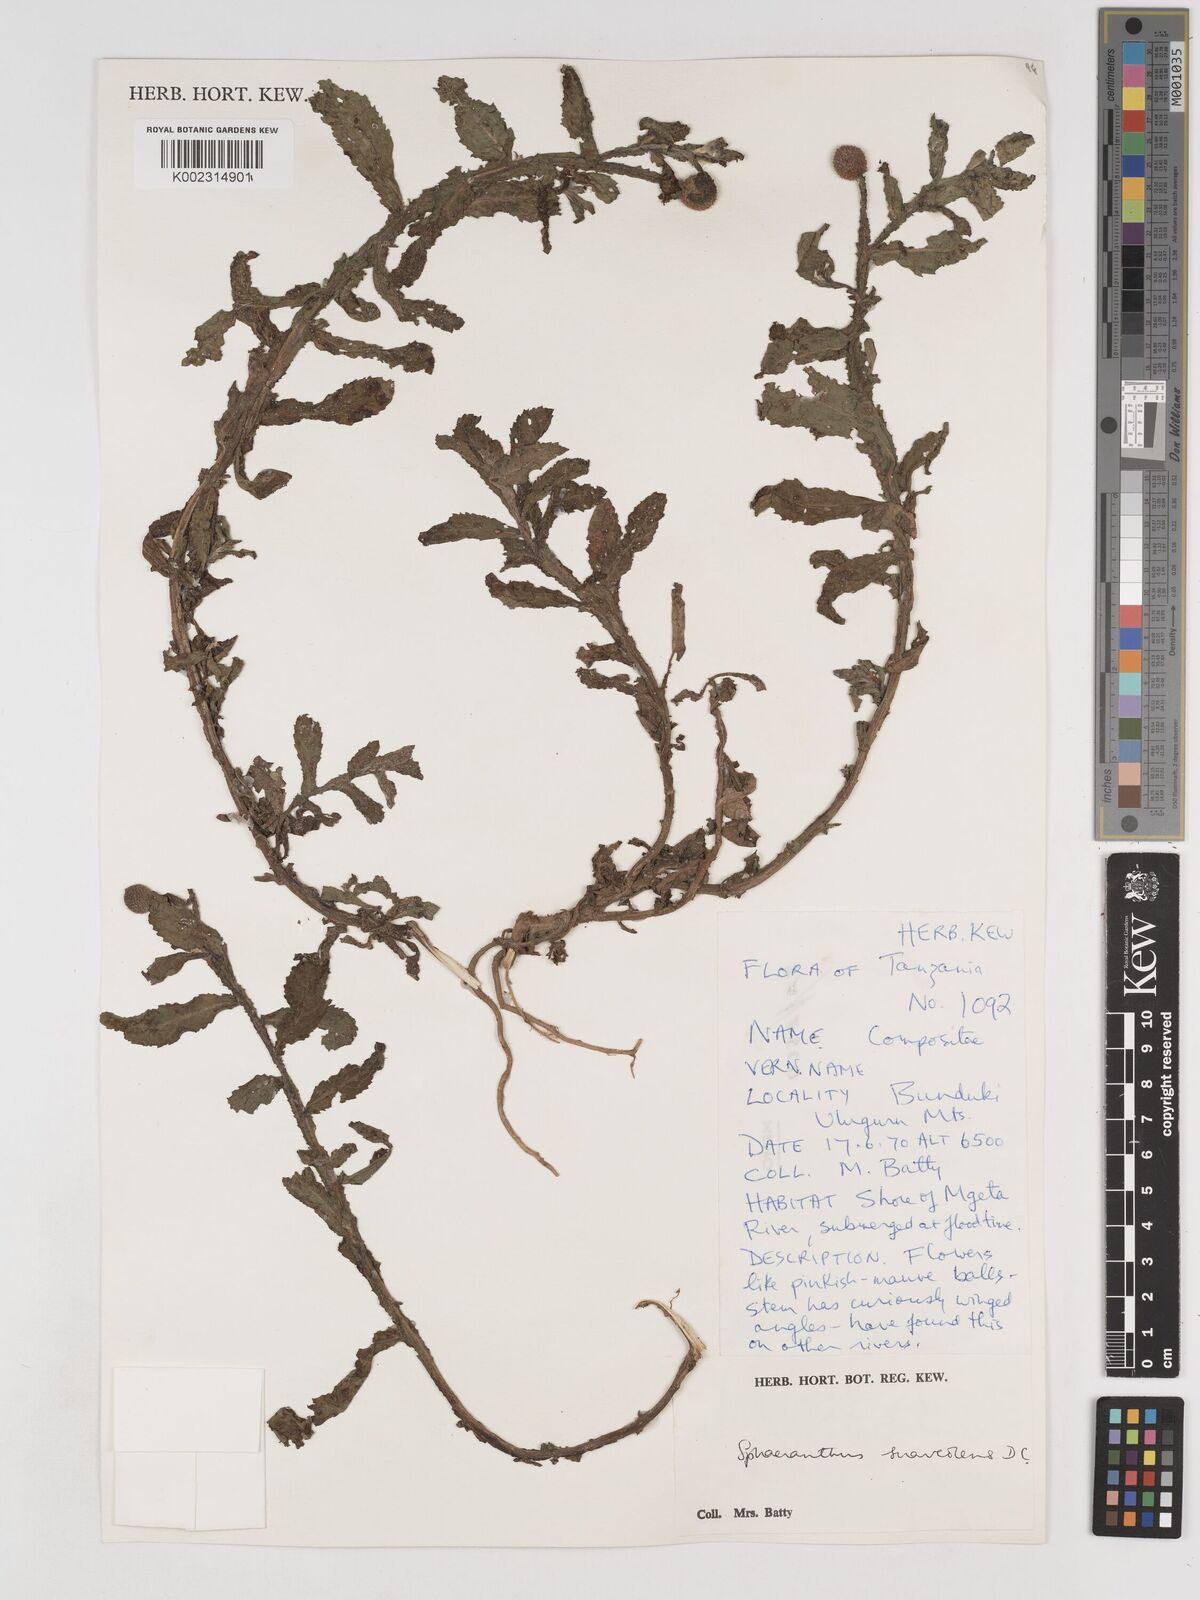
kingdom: Plantae
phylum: Tracheophyta
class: Magnoliopsida
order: Asterales
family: Asteraceae
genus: Sphaeranthus
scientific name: Sphaeranthus suaveolens
